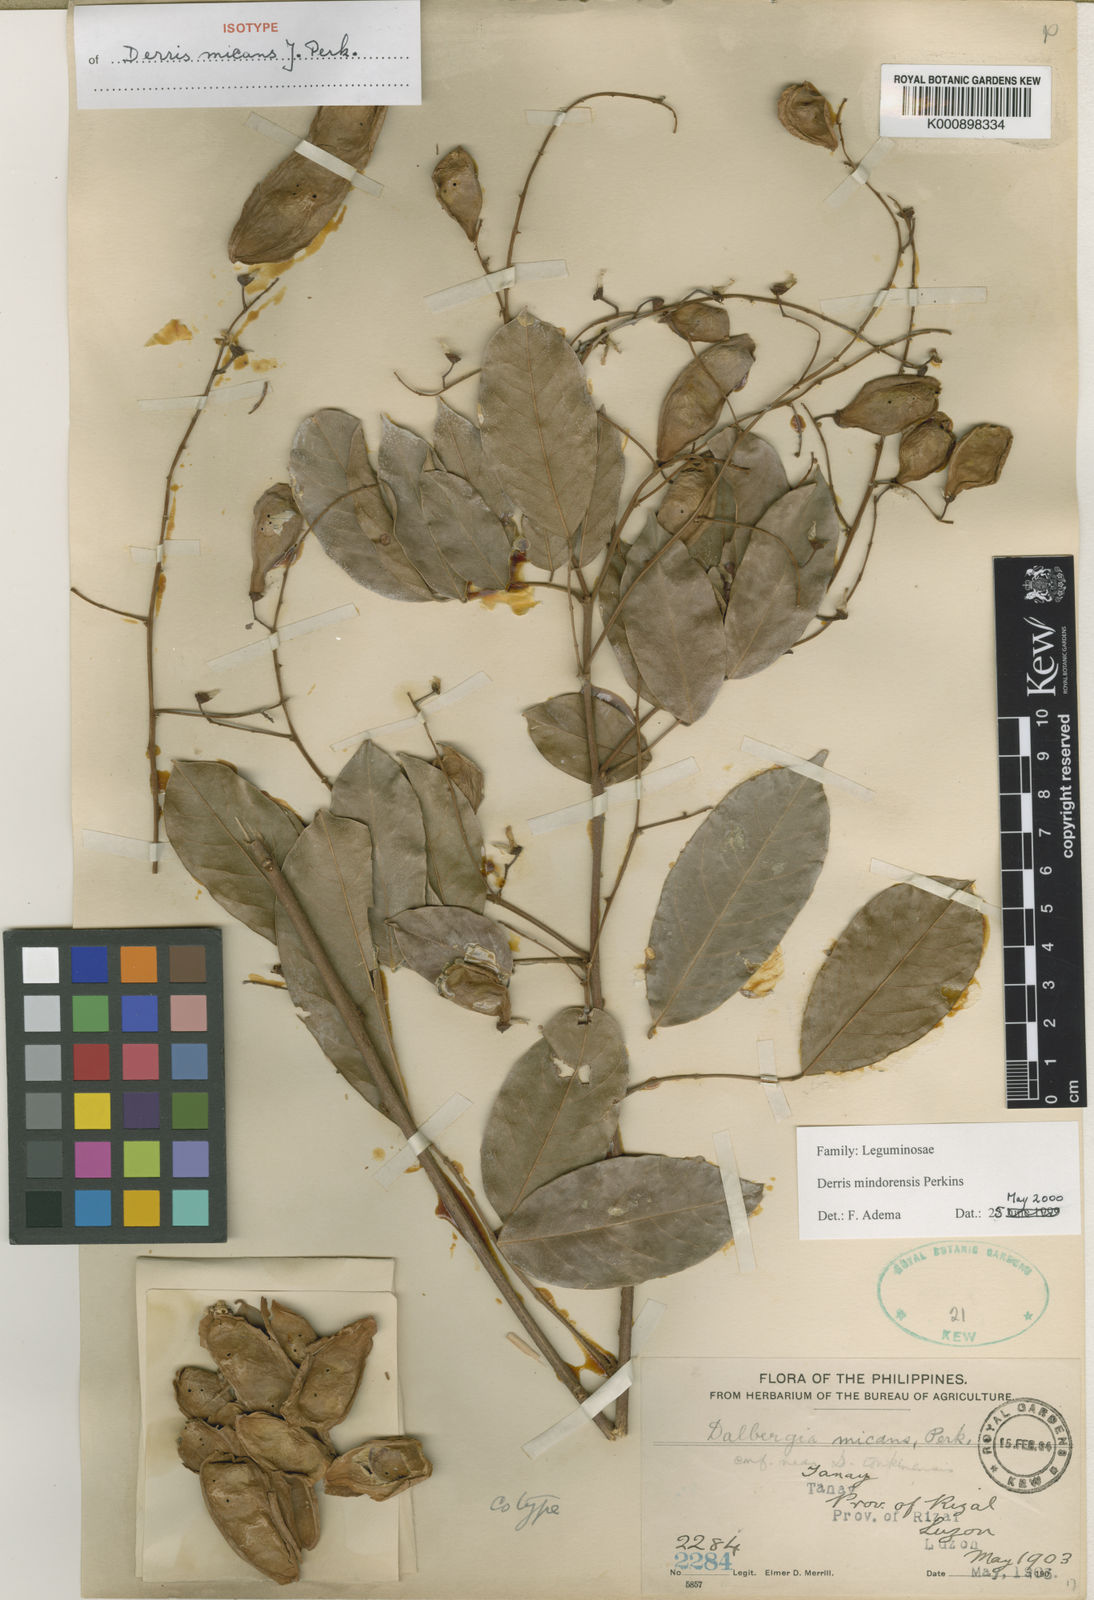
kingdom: Plantae
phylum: Tracheophyta
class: Magnoliopsida
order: Fabales
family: Fabaceae
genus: Derris
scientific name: Derris pubipetala
